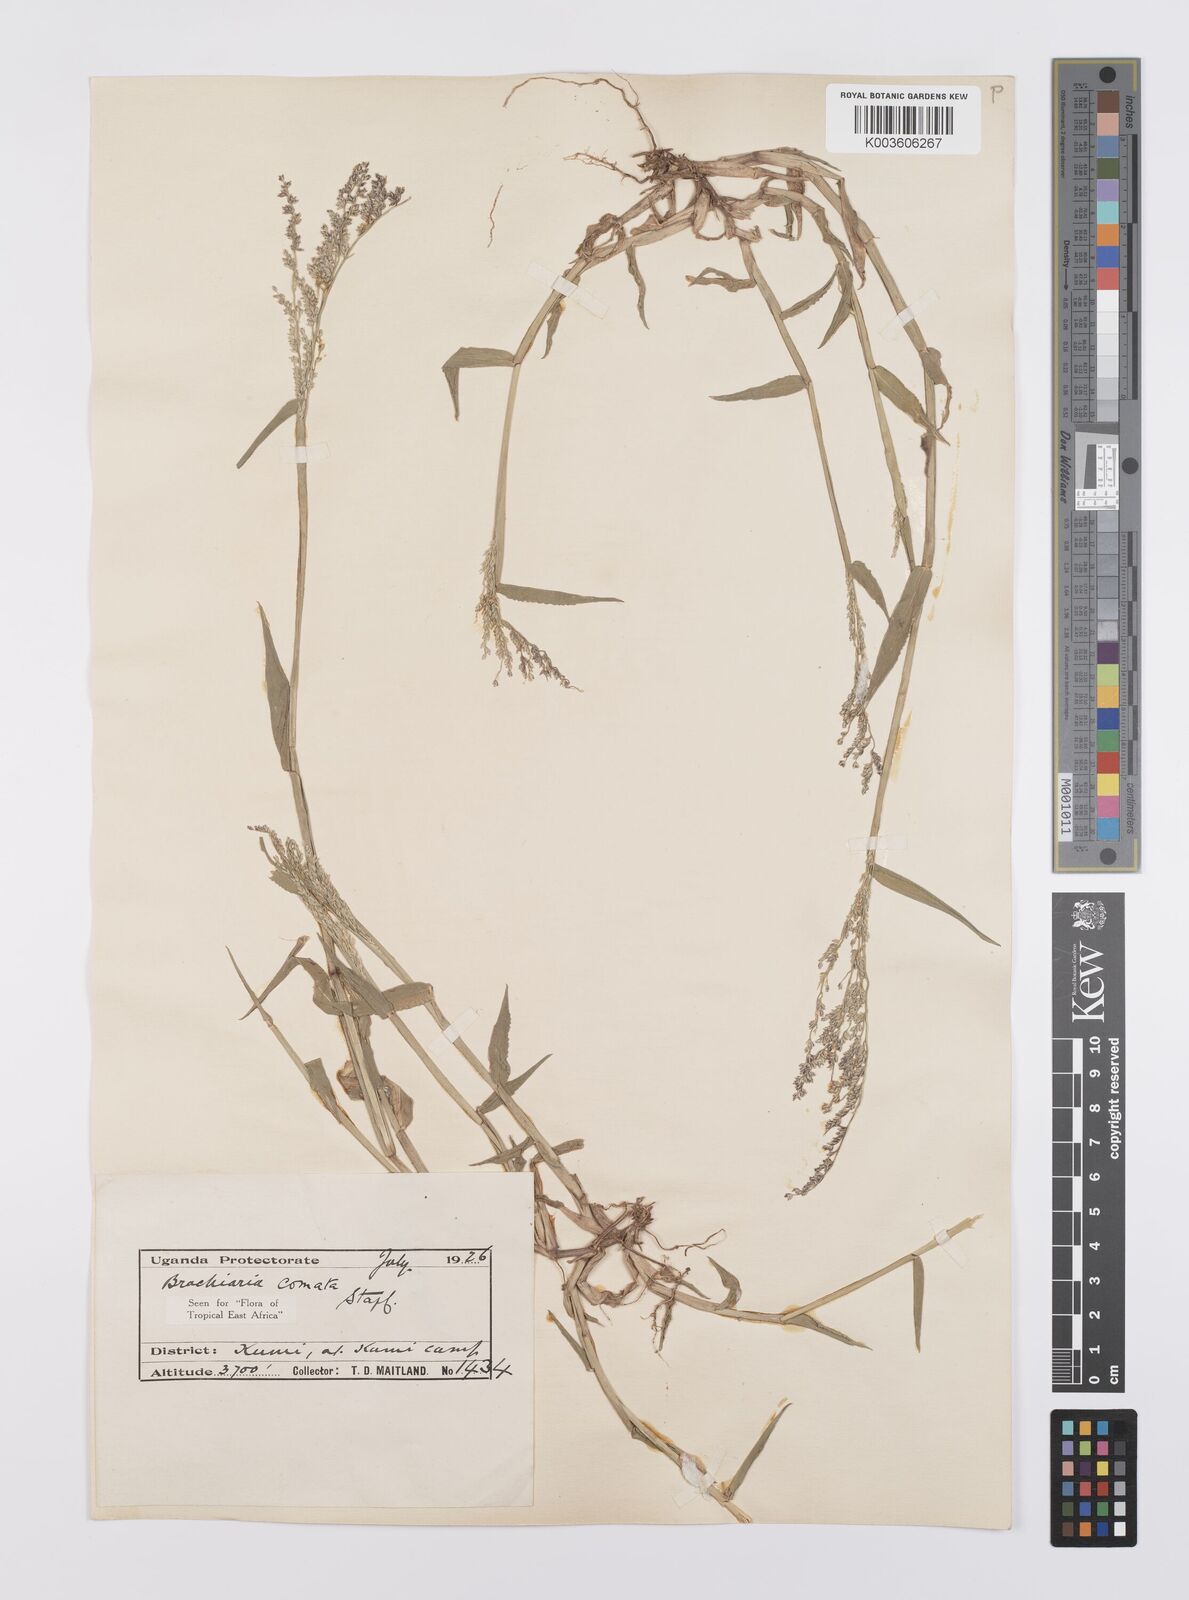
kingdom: Plantae
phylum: Tracheophyta
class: Liliopsida
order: Poales
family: Poaceae
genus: Urochloa
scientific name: Urochloa comata
